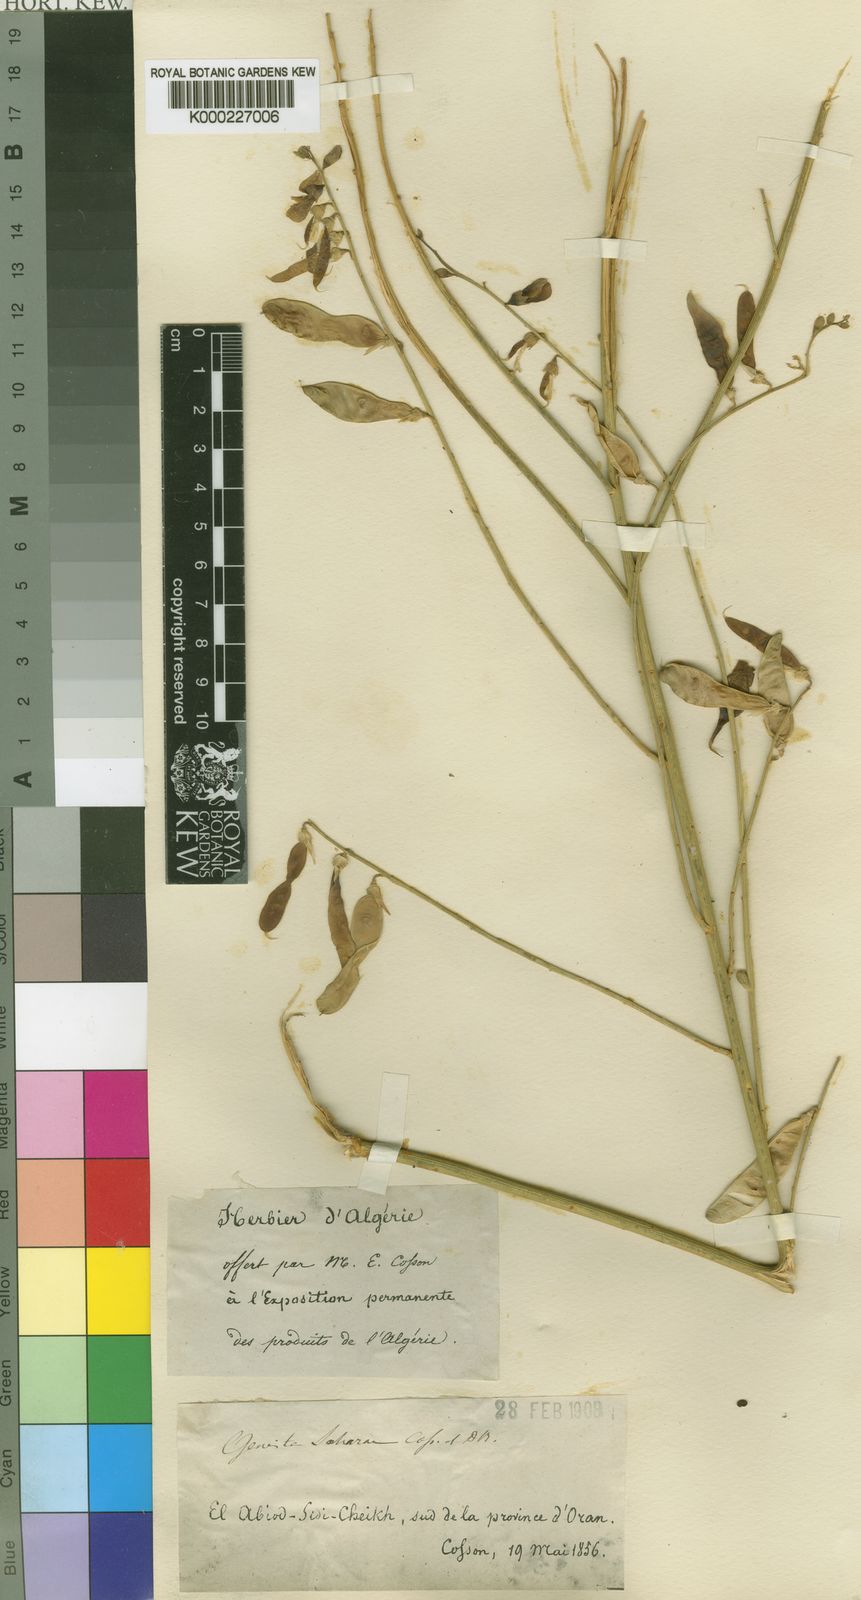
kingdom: Plantae
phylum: Tracheophyta
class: Magnoliopsida
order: Fabales
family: Fabaceae
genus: Calobota
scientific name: Calobota saharae
